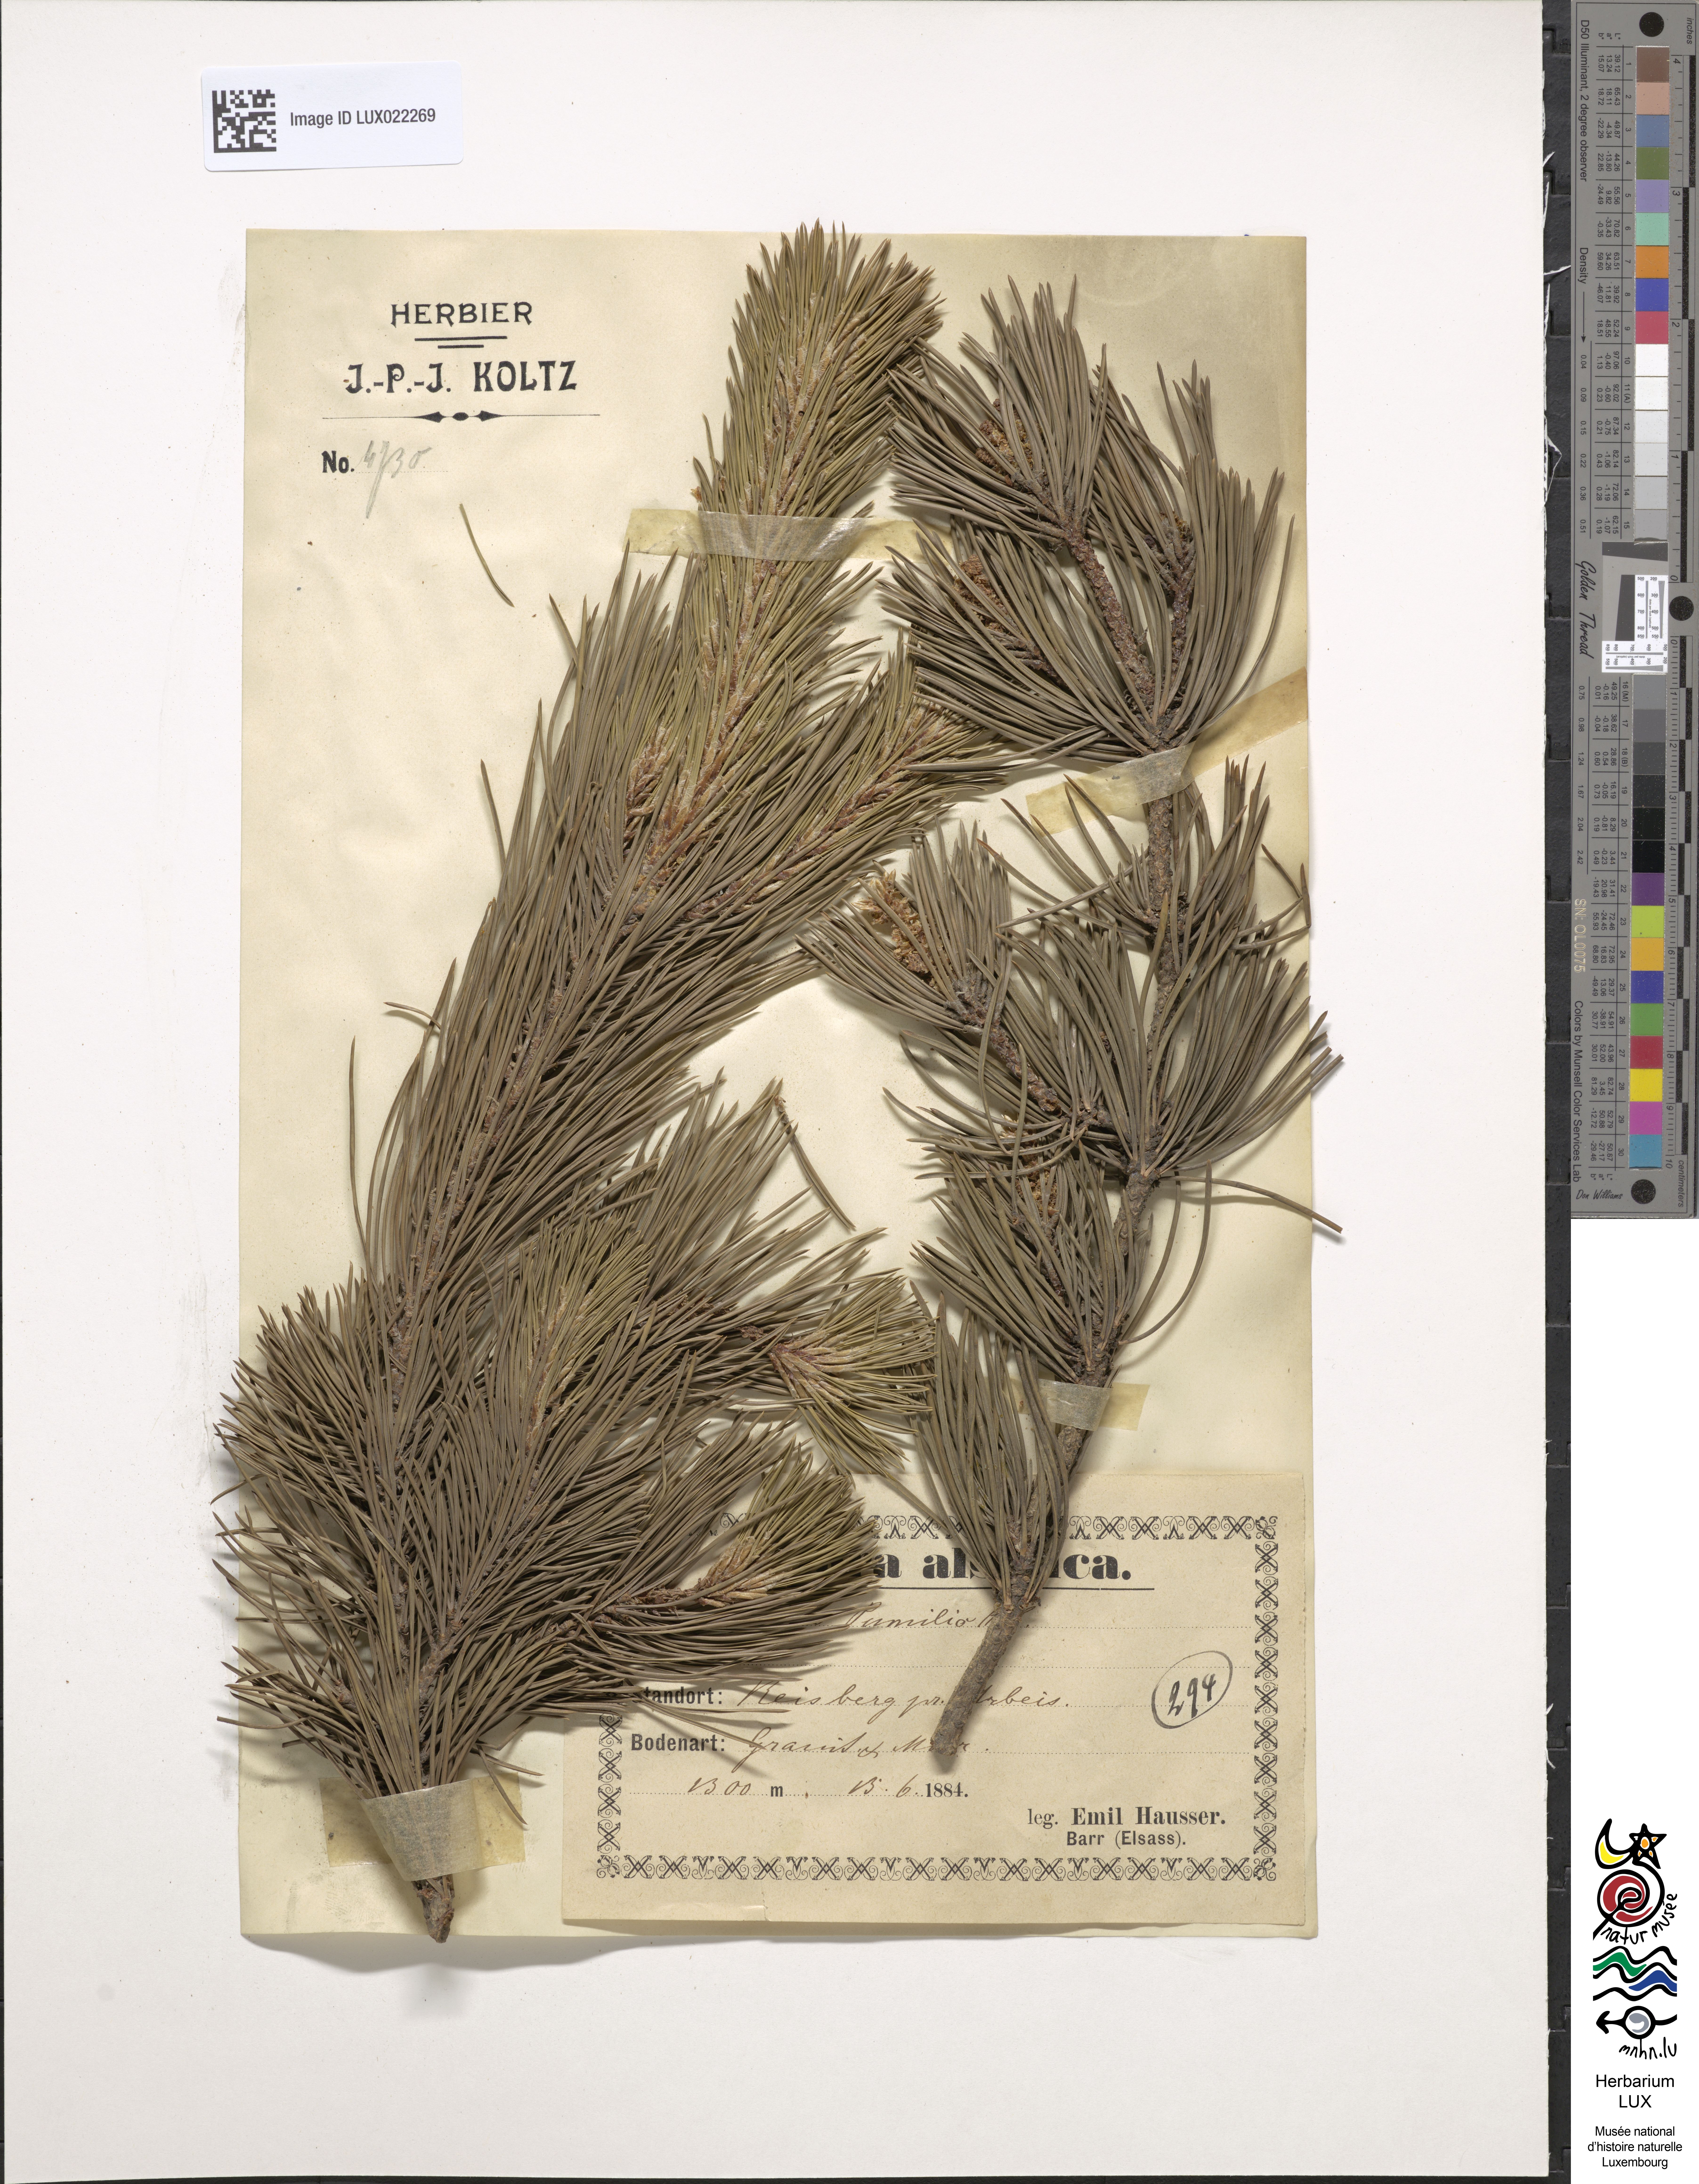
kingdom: Plantae
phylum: Tracheophyta
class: Pinopsida
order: Pinales
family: Pinaceae
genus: Pinus
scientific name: Pinus mugo
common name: Mugo pine
